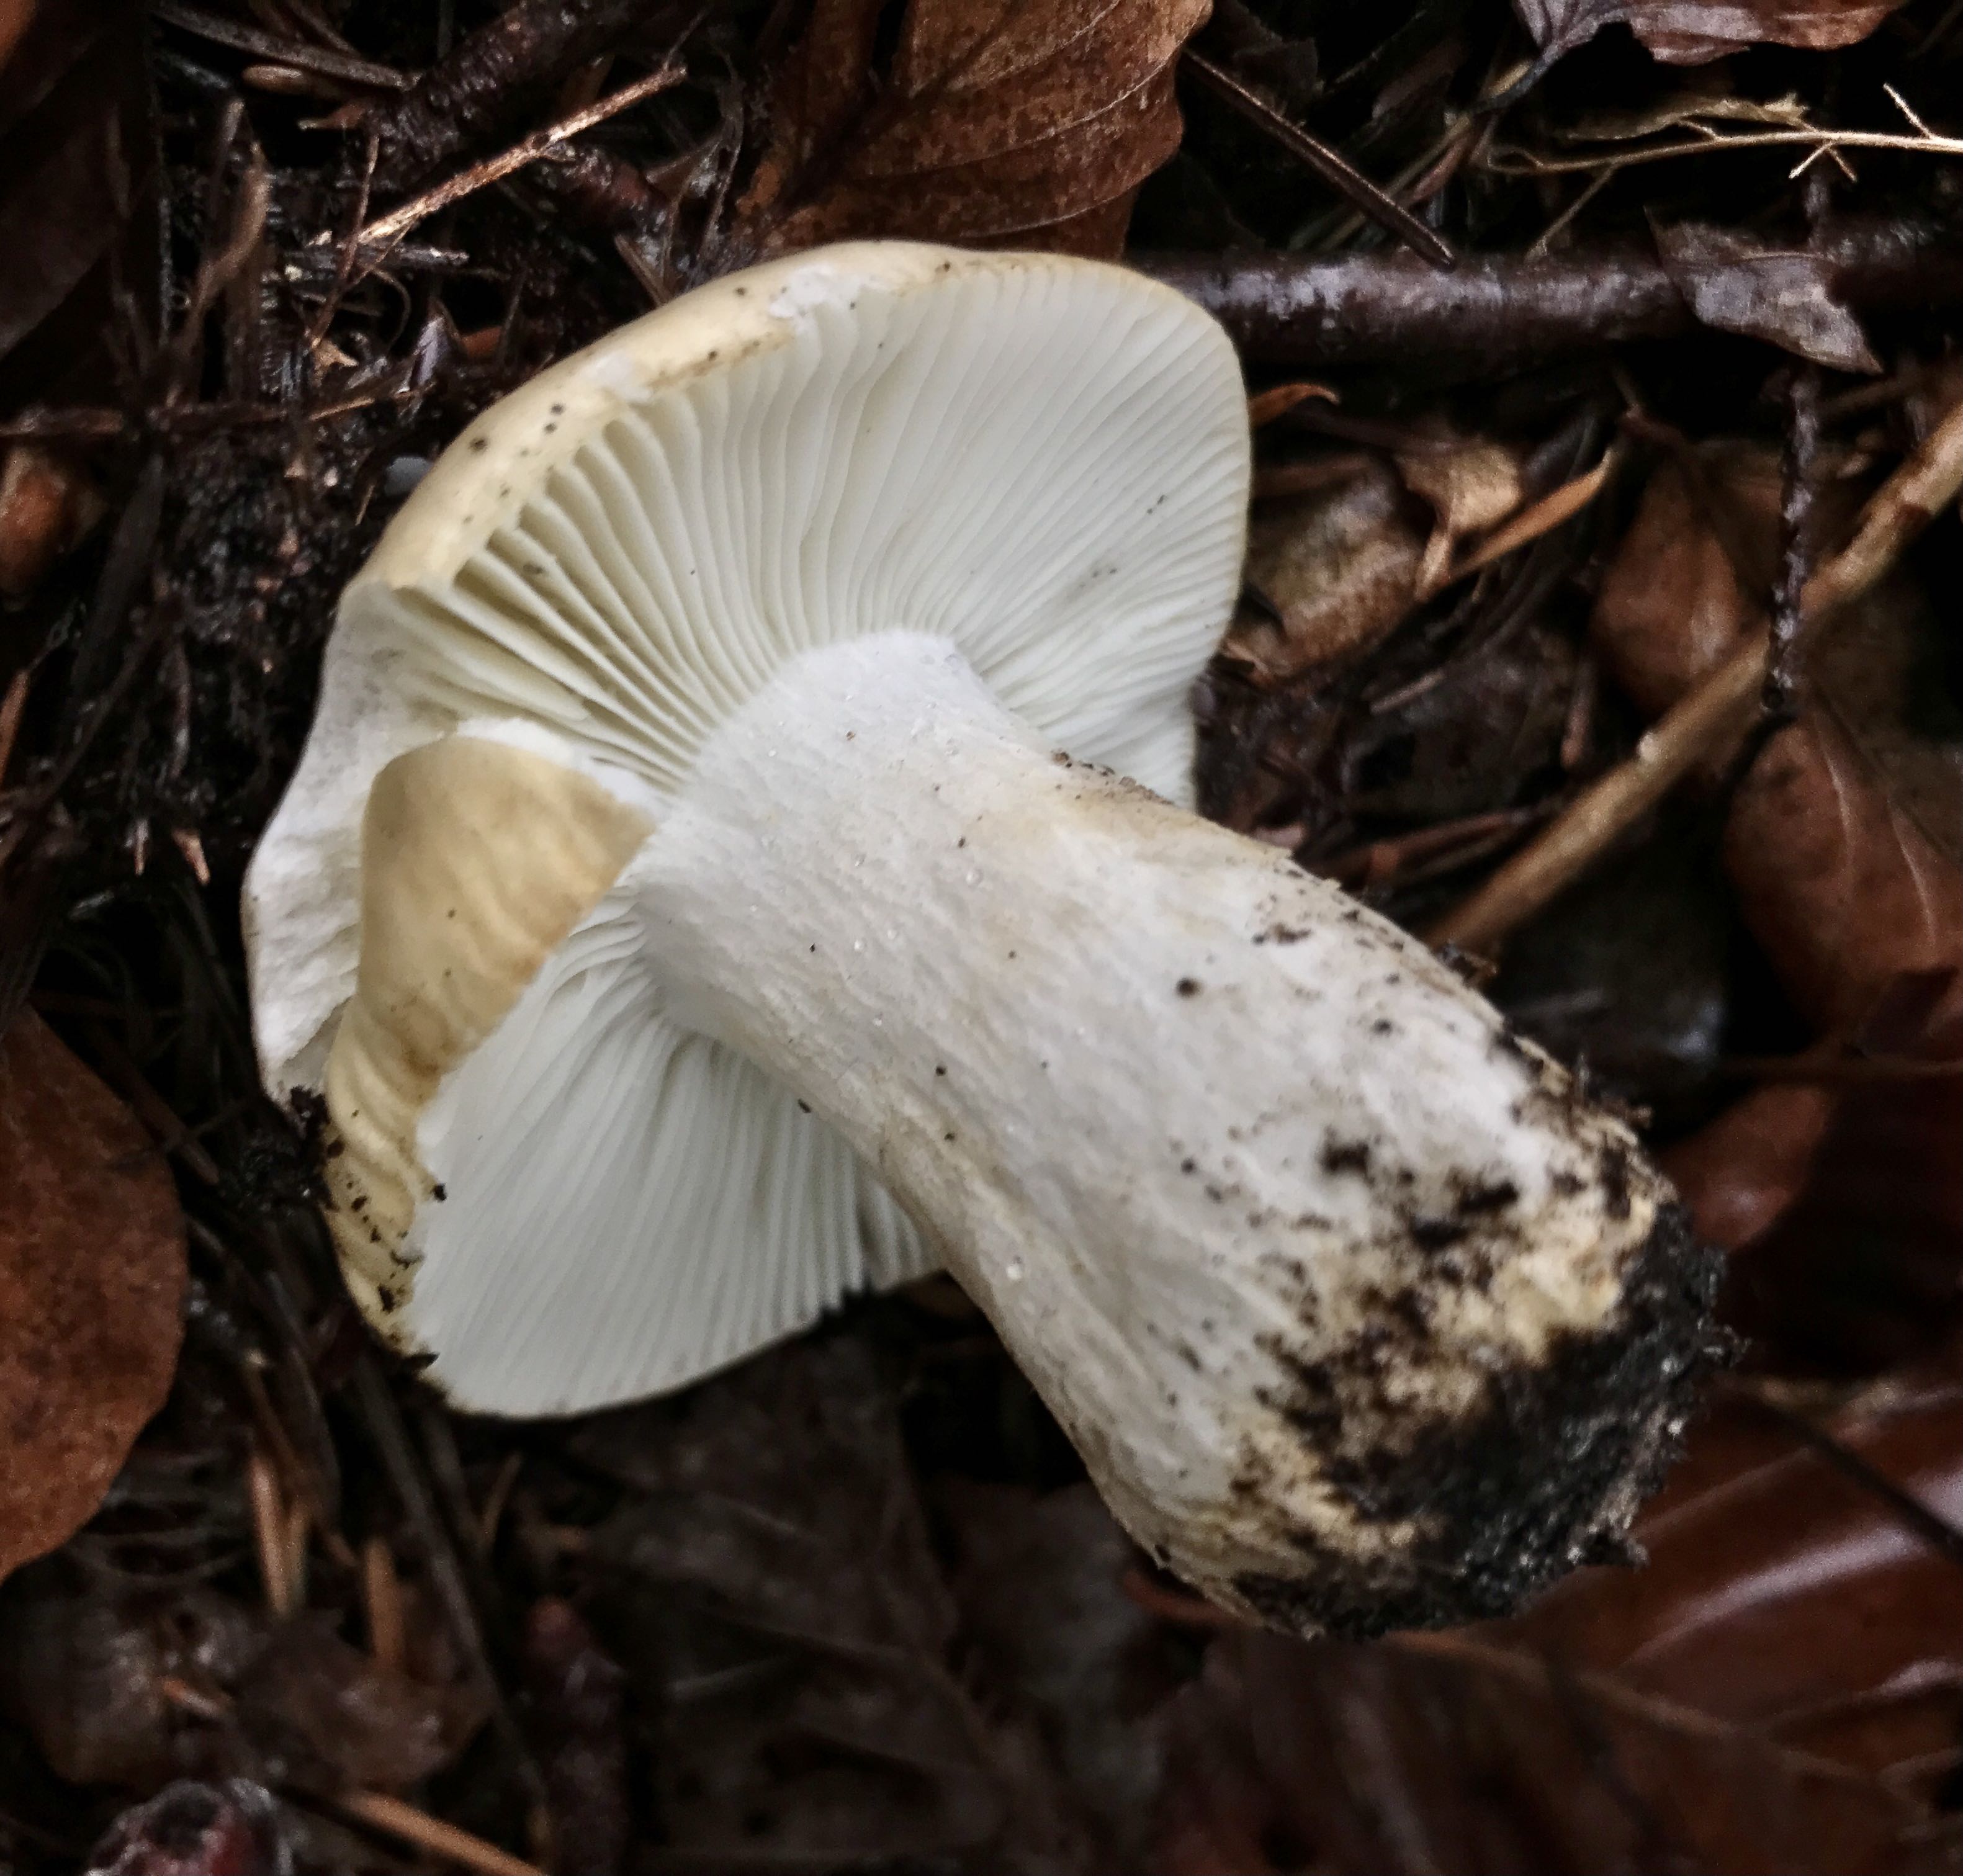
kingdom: Fungi
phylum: Basidiomycota
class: Agaricomycetes
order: Russulales
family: Russulaceae
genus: Russula
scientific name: Russula ochroleuca
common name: okkergul skørhat
